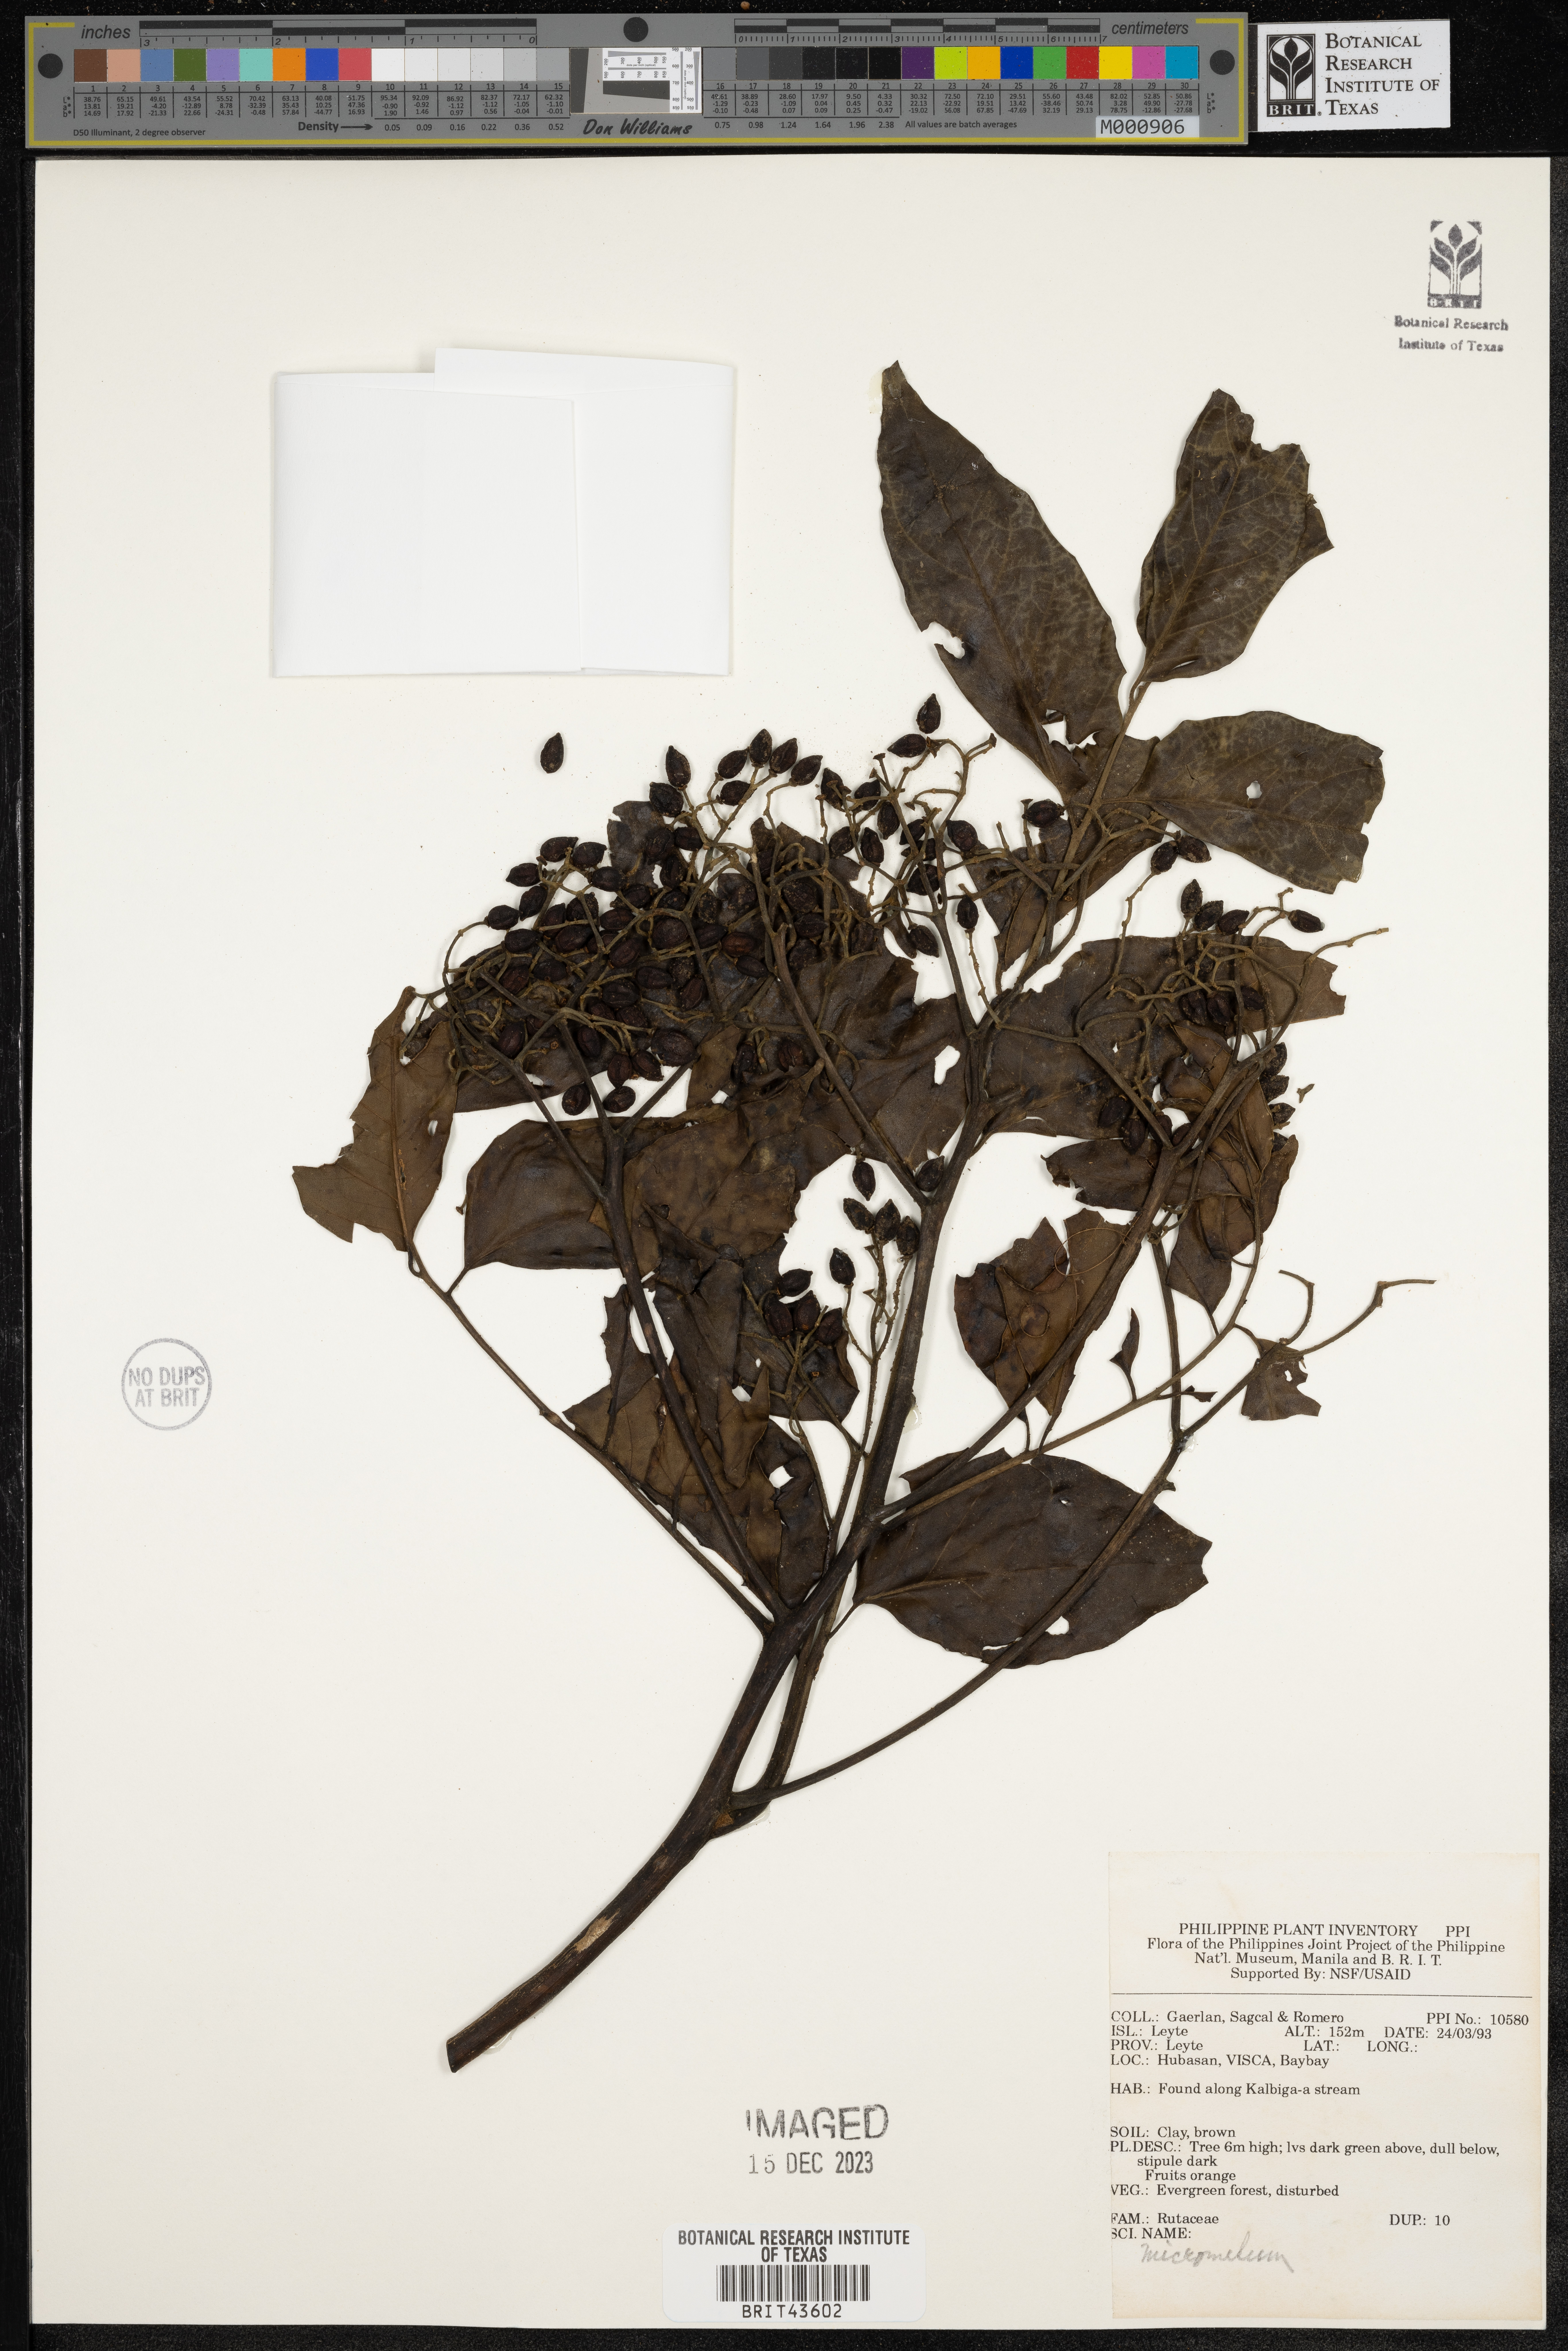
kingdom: Plantae
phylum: Tracheophyta
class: Magnoliopsida
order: Sapindales
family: Rutaceae
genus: Micromelum
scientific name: Micromelum
